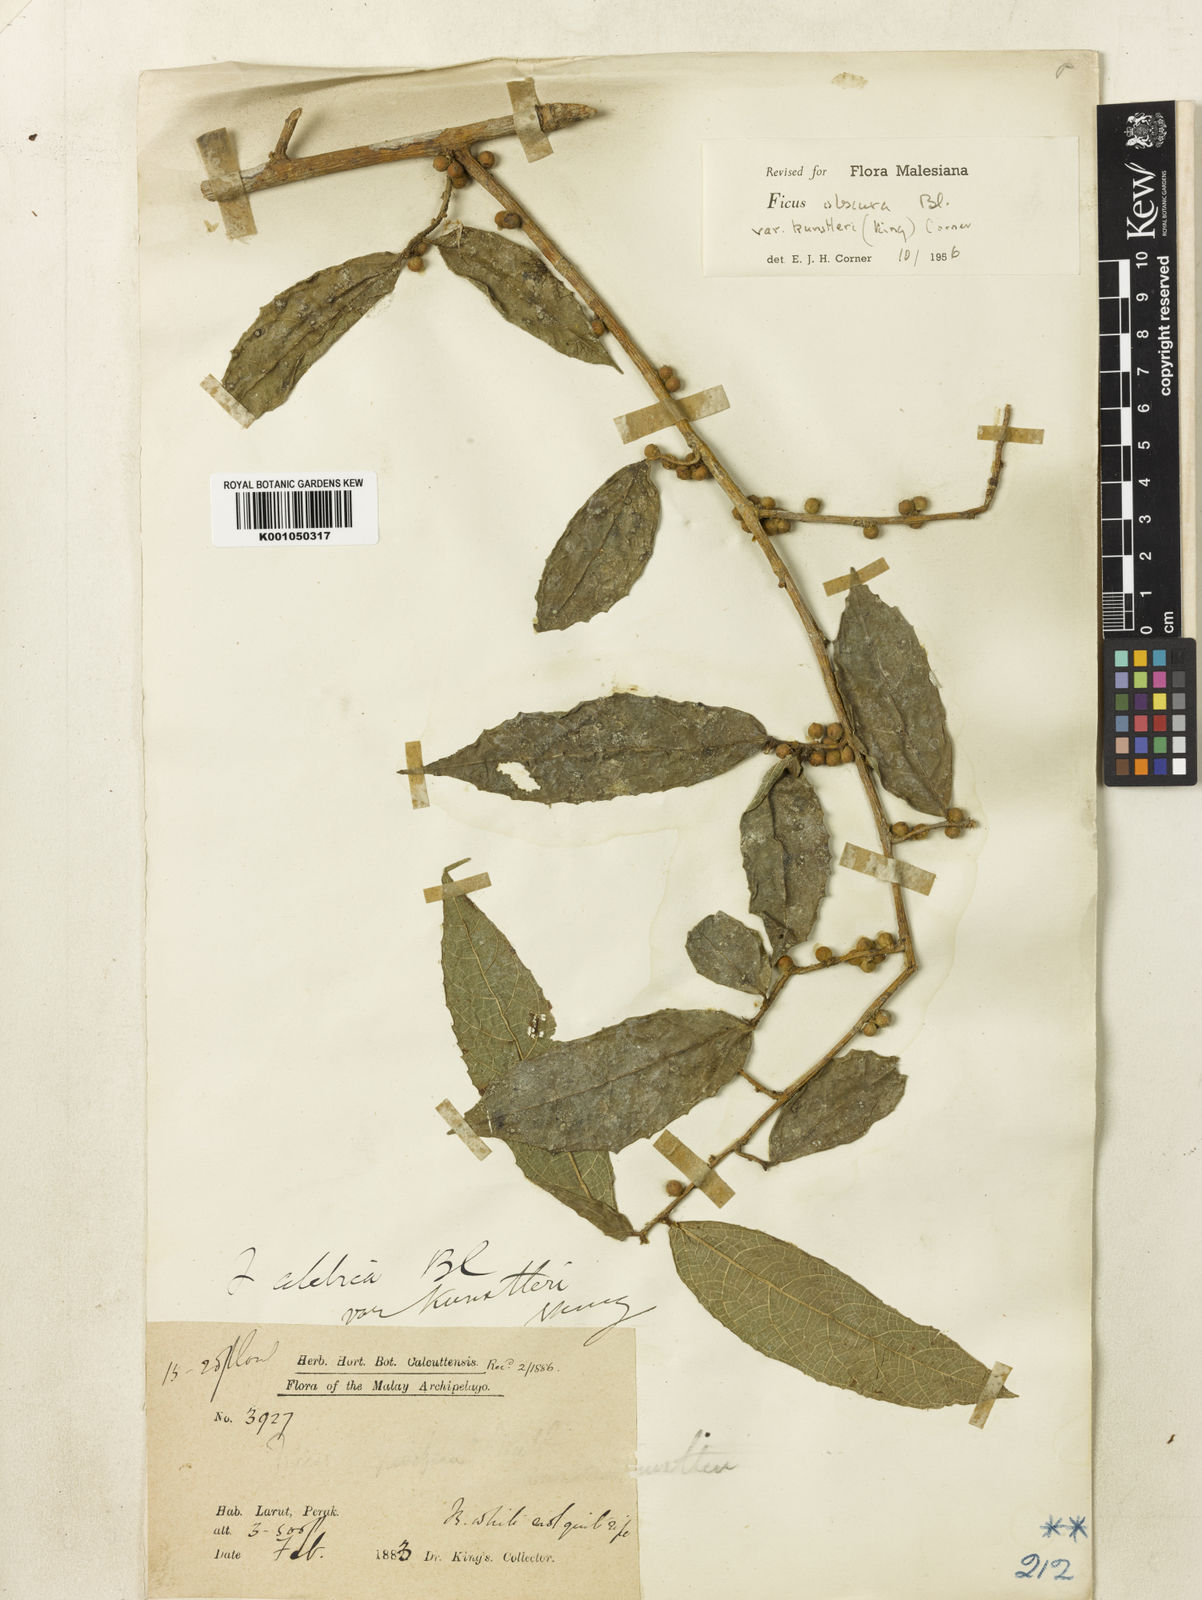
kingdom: Plantae
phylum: Tracheophyta
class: Magnoliopsida
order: Rosales
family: Moraceae
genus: Ficus
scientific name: Ficus obscura
